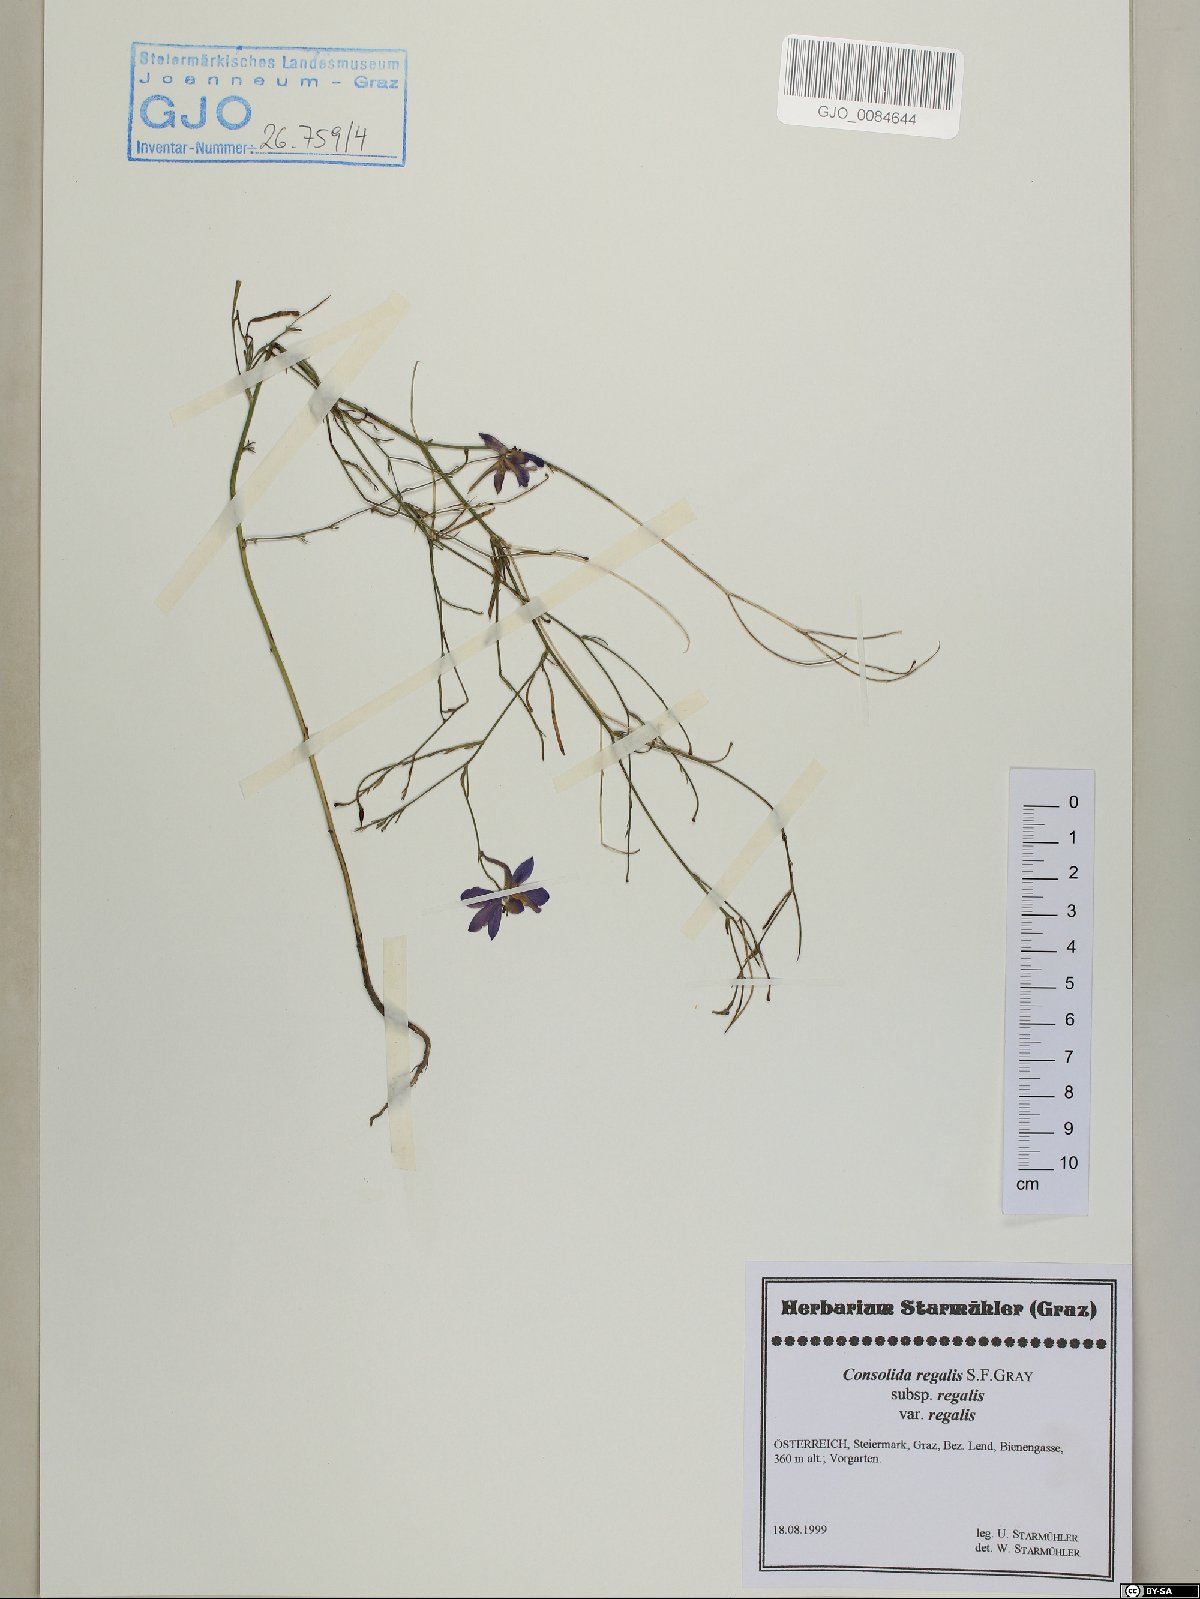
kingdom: Plantae
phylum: Tracheophyta
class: Magnoliopsida
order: Ranunculales
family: Ranunculaceae
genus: Delphinium
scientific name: Delphinium consolida
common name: Branching larkspur
